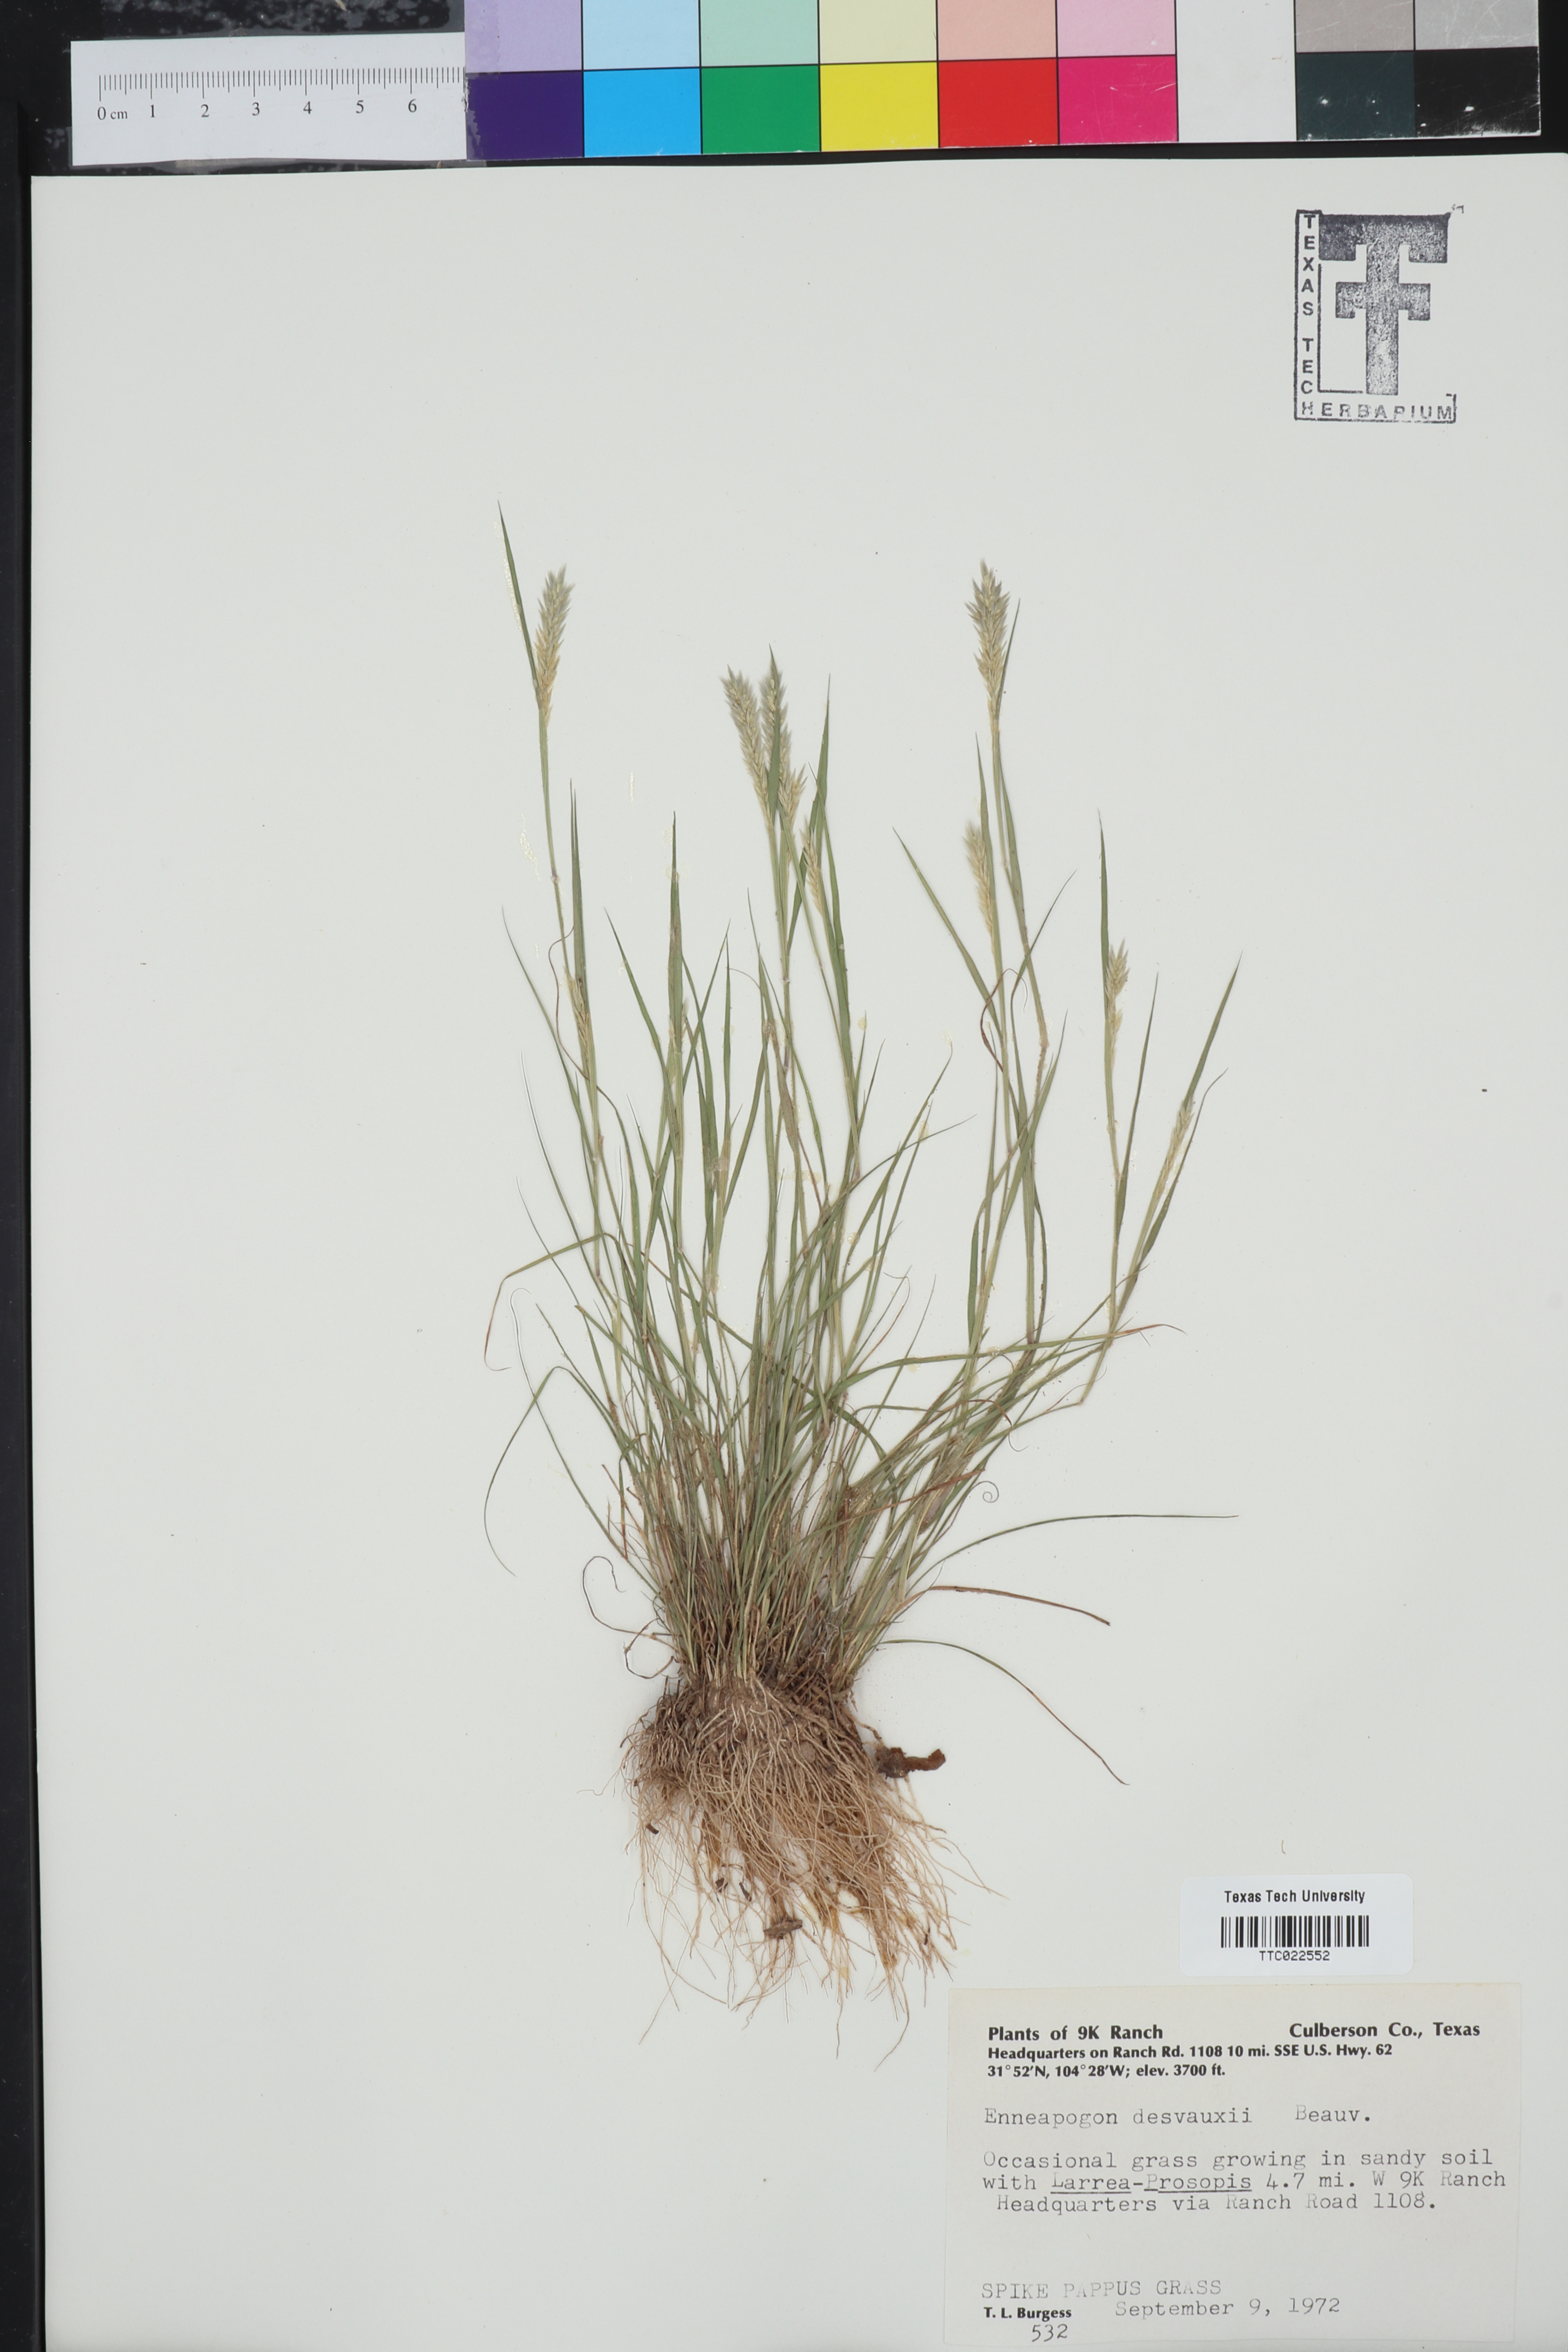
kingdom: Plantae
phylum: Tracheophyta
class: Liliopsida
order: Poales
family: Poaceae
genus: Enneapogon
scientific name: Enneapogon desvauxii
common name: Feather pappus grass
